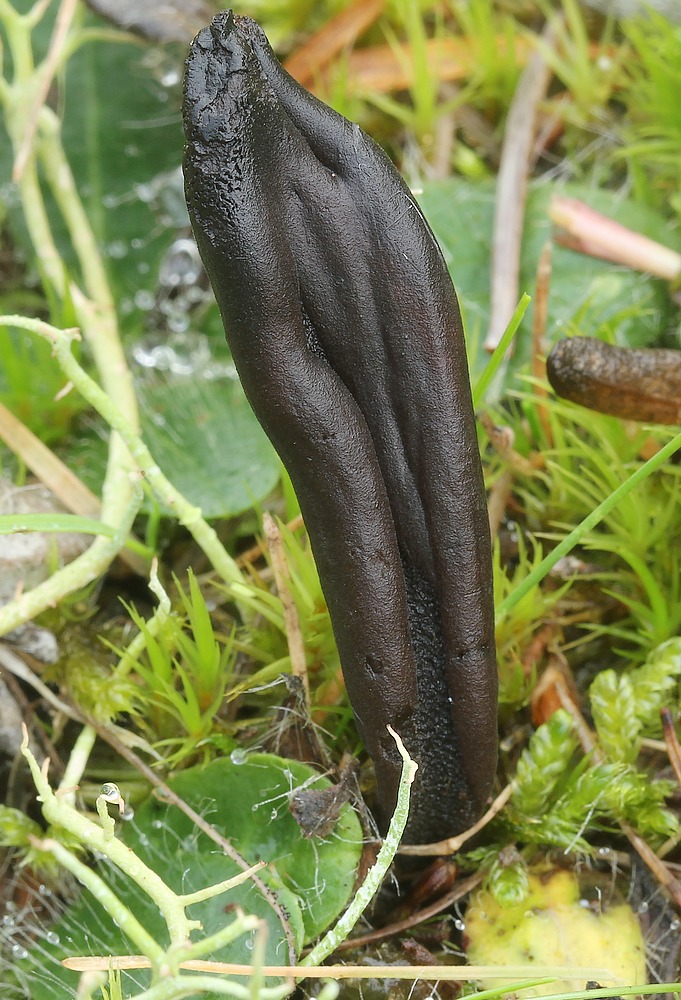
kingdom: Fungi
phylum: Ascomycota
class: Geoglossomycetes
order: Geoglossales
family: Geoglossaceae
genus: Hemileucoglossum
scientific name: Hemileucoglossum elongatum
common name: småsporet jordtunge
